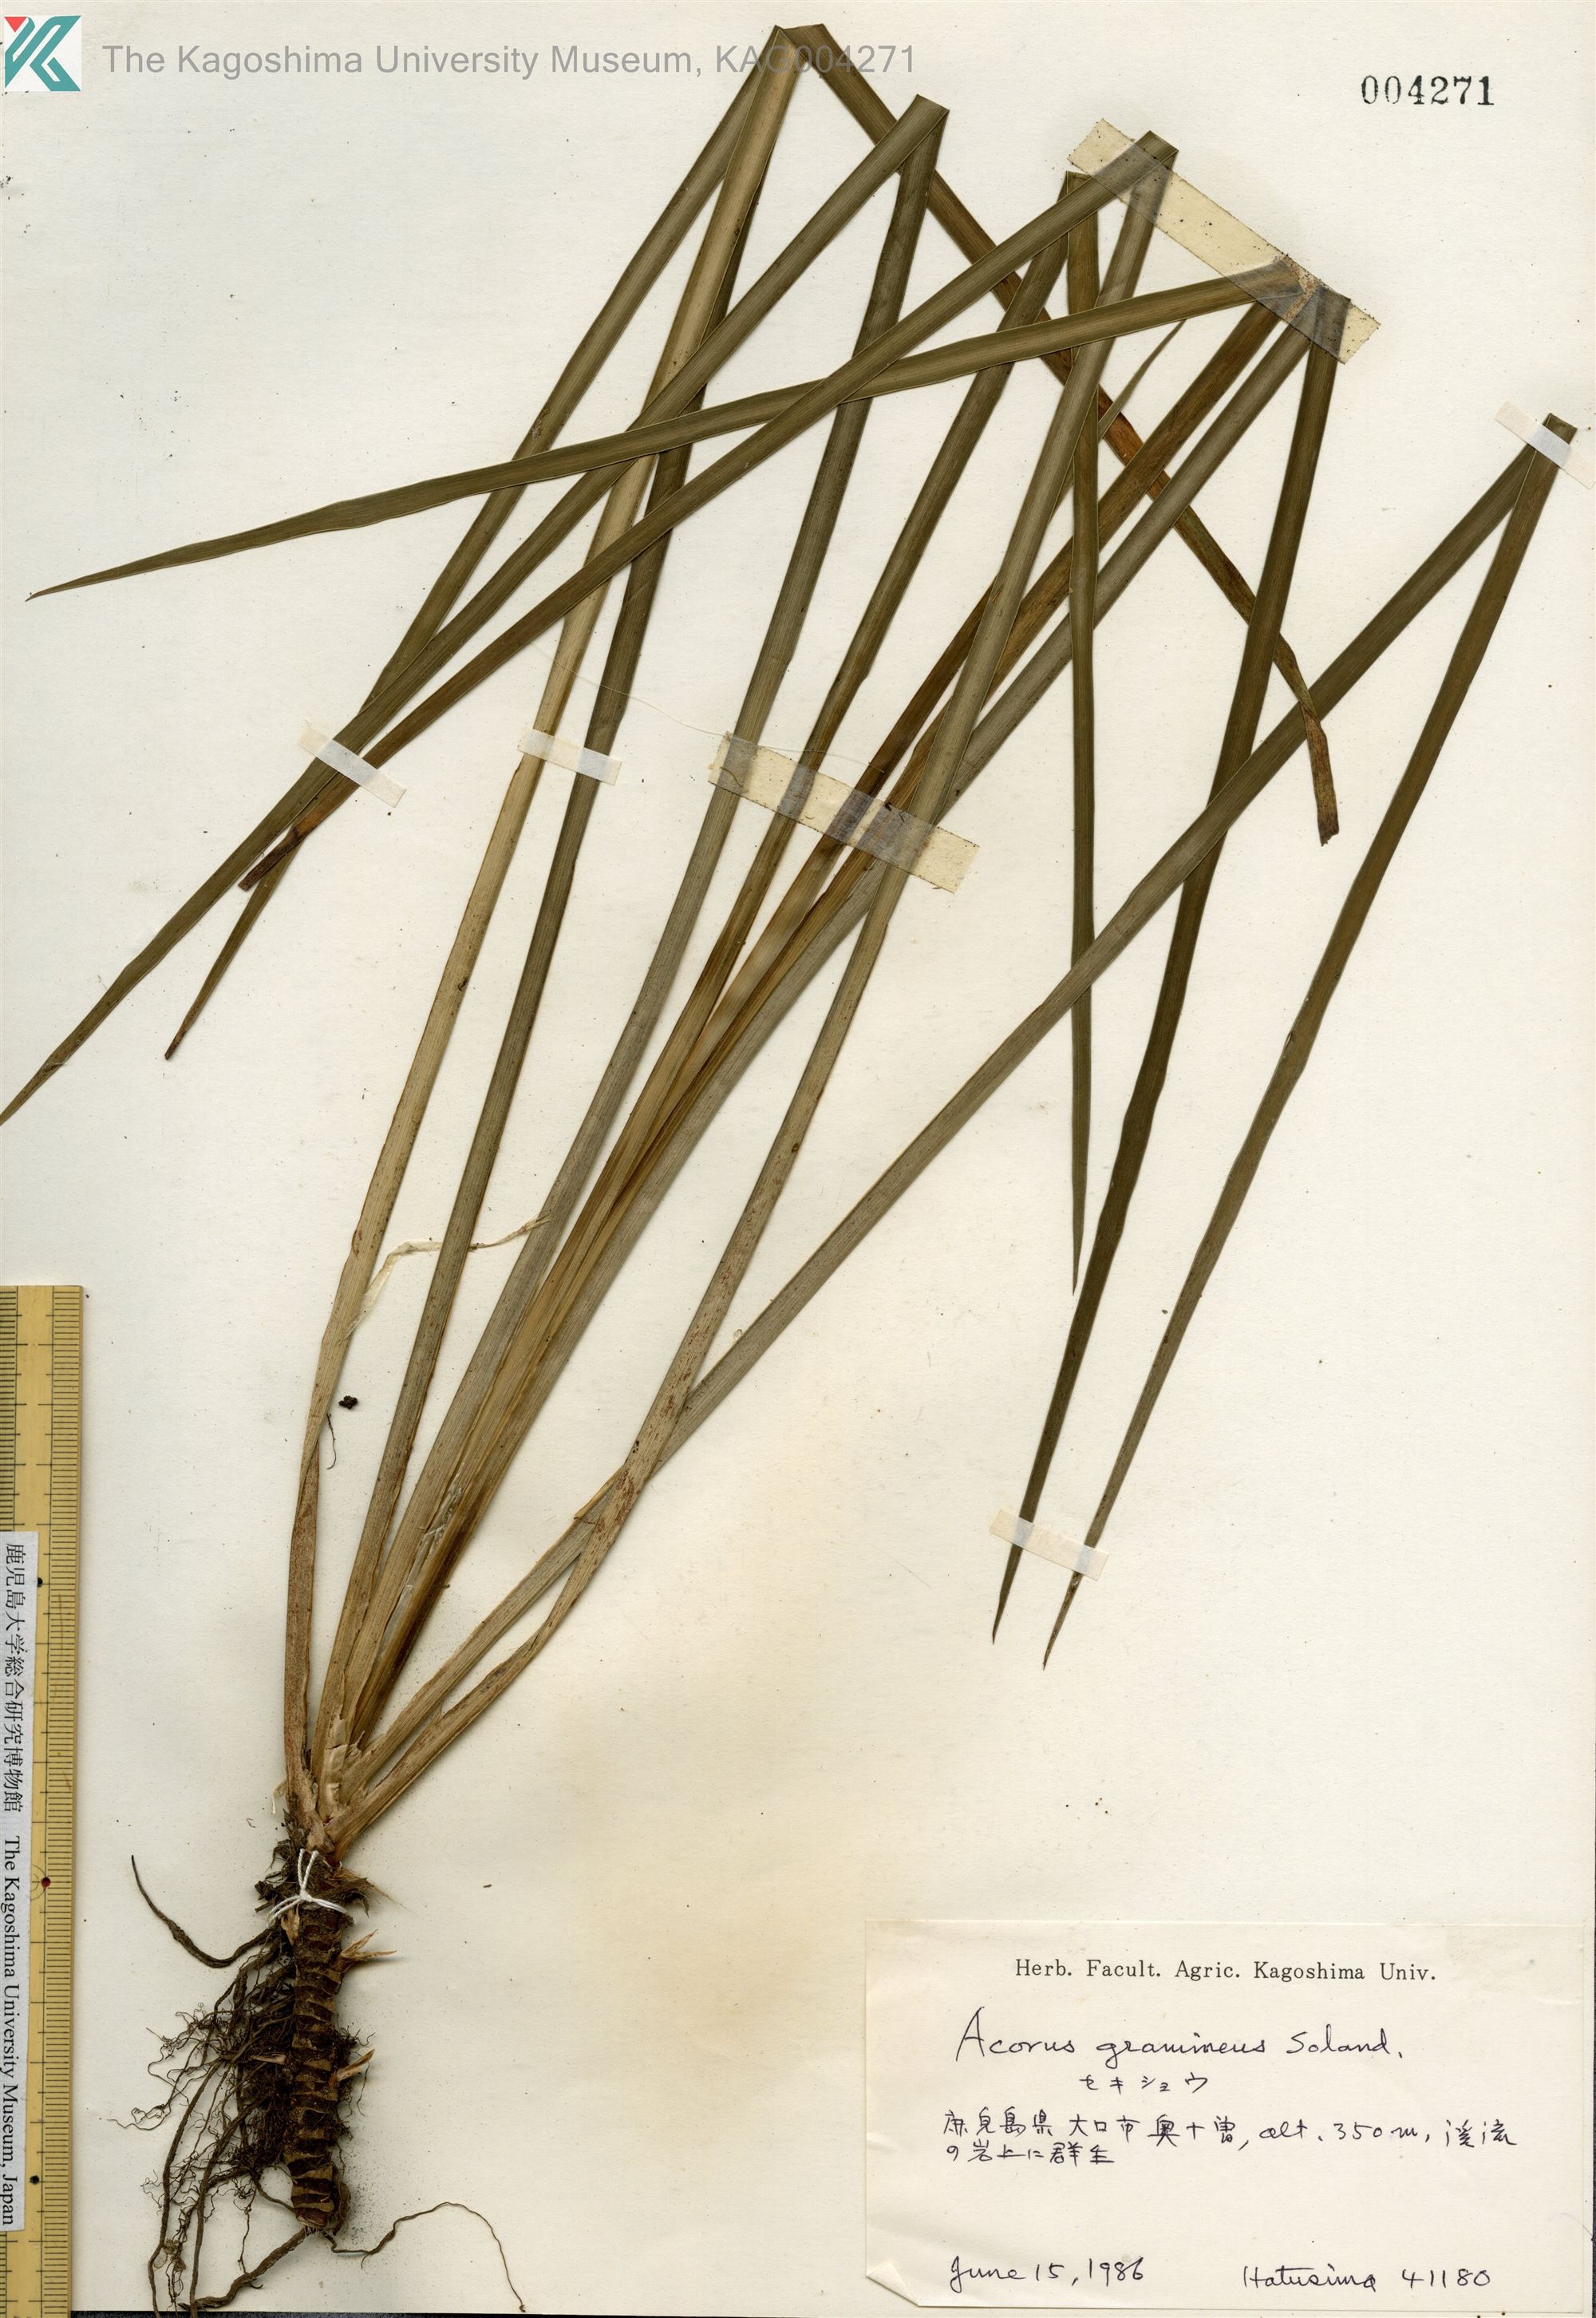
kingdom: Plantae
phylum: Tracheophyta
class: Liliopsida
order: Acorales
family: Acoraceae
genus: Acorus
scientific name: Acorus gramineus
